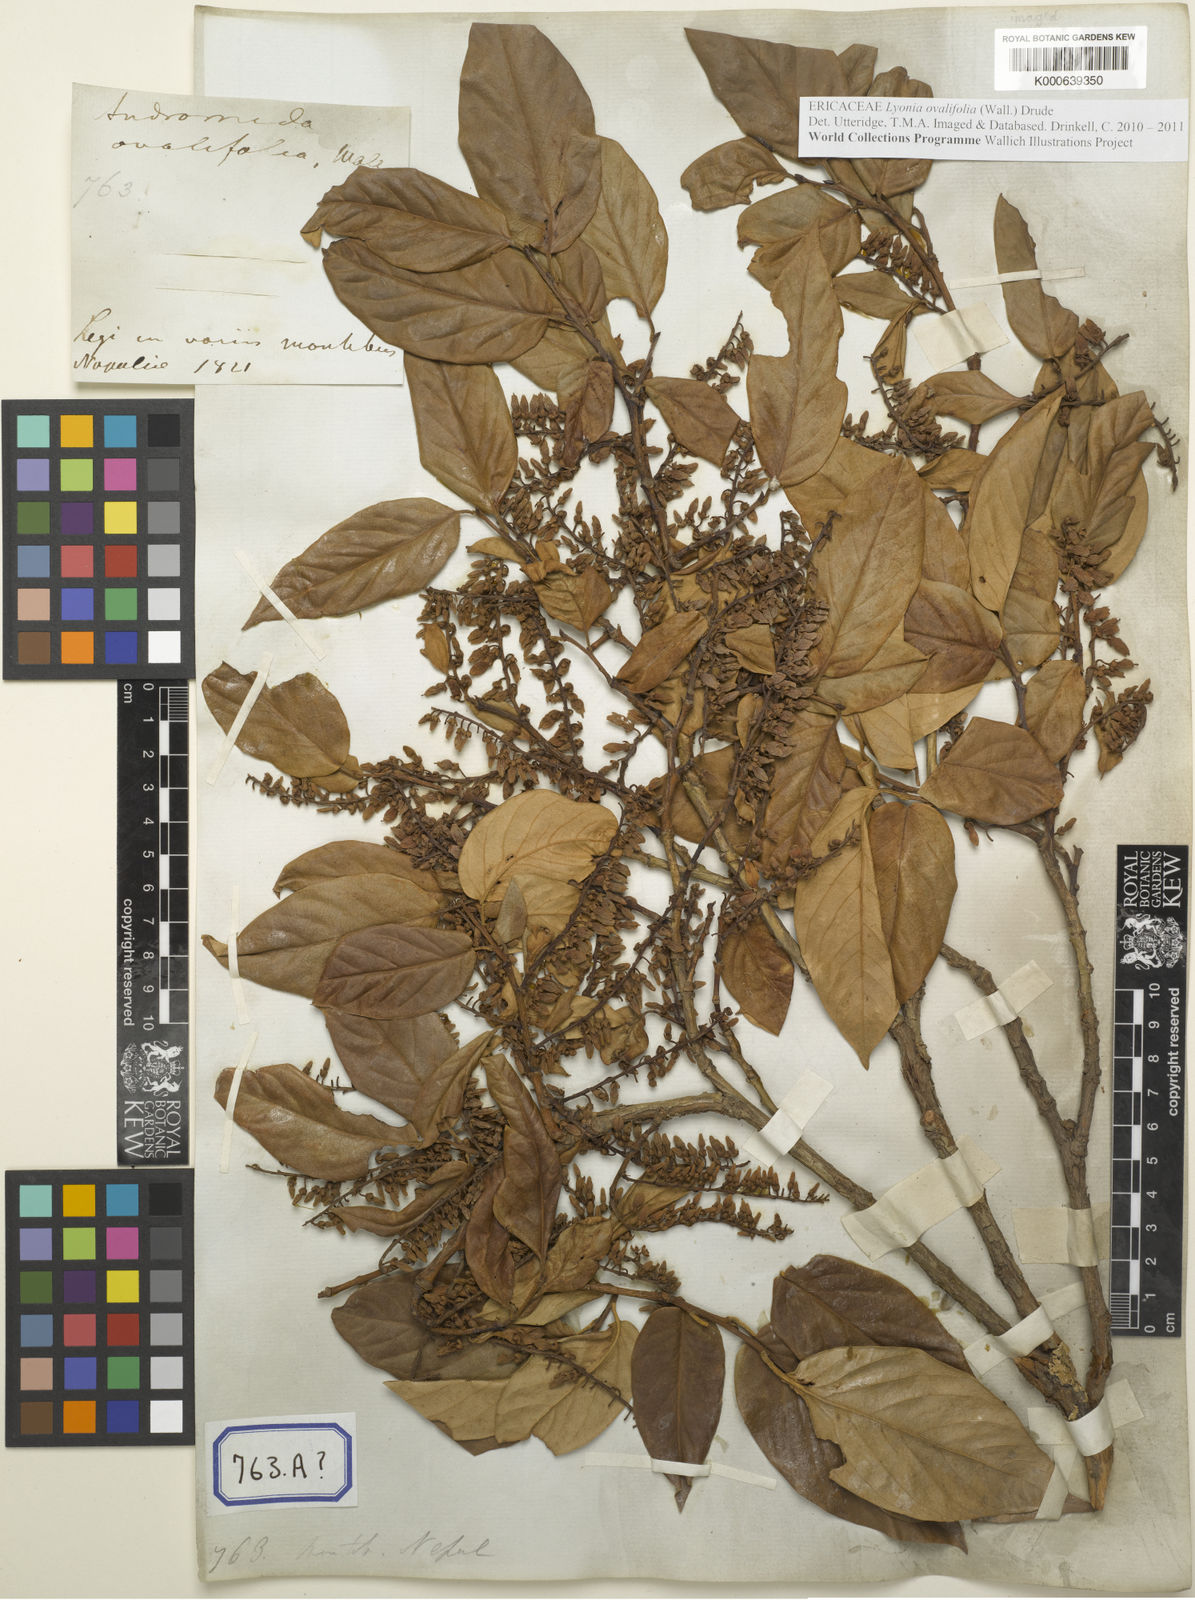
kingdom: Plantae
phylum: Tracheophyta
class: Magnoliopsida
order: Ericales
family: Ericaceae
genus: Lyonia
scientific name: Lyonia ovalifolia
